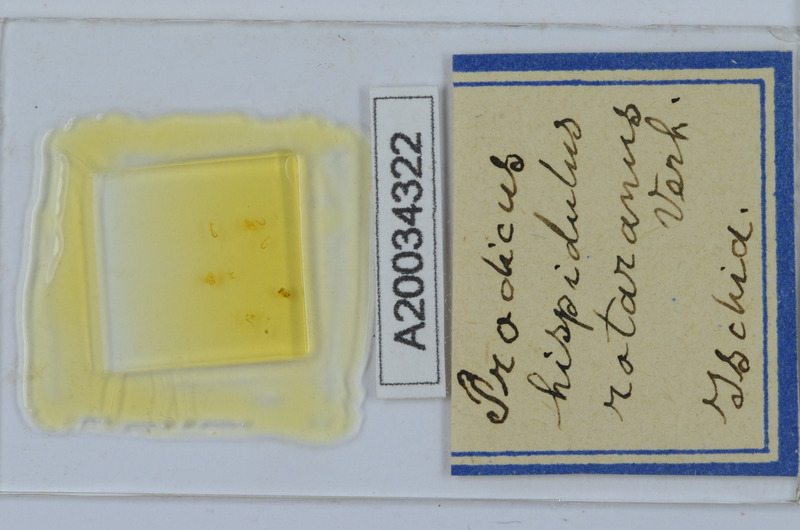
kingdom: Animalia
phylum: Arthropoda
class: Diplopoda
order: Chordeumatida
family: Anthroleucosomatidae
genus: Anamastigona
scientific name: Anamastigona hispidula
